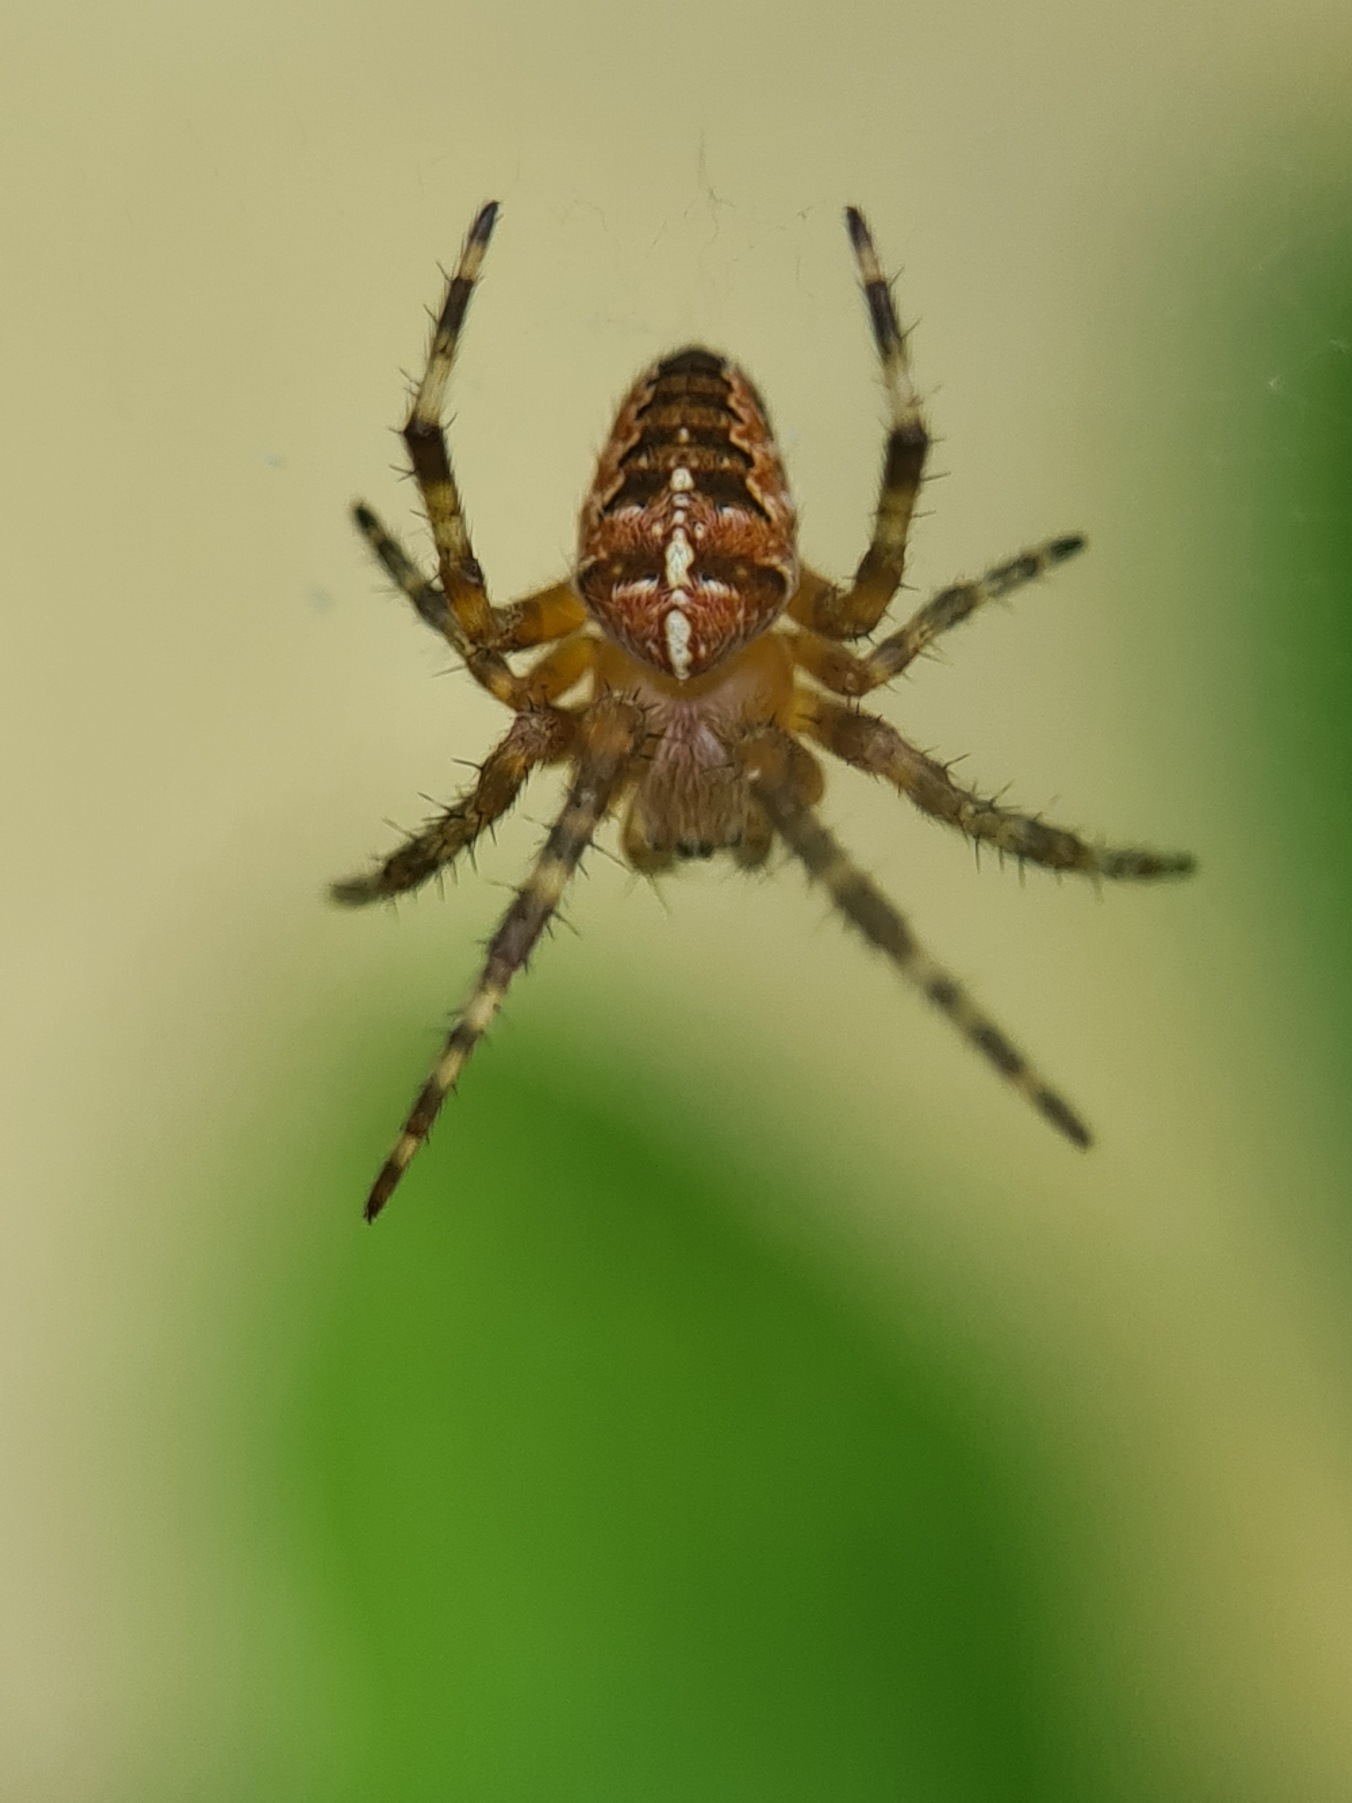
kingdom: Animalia
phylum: Arthropoda
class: Arachnida
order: Araneae
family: Araneidae
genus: Araneus
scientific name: Araneus diadematus
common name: Korsedderkop
